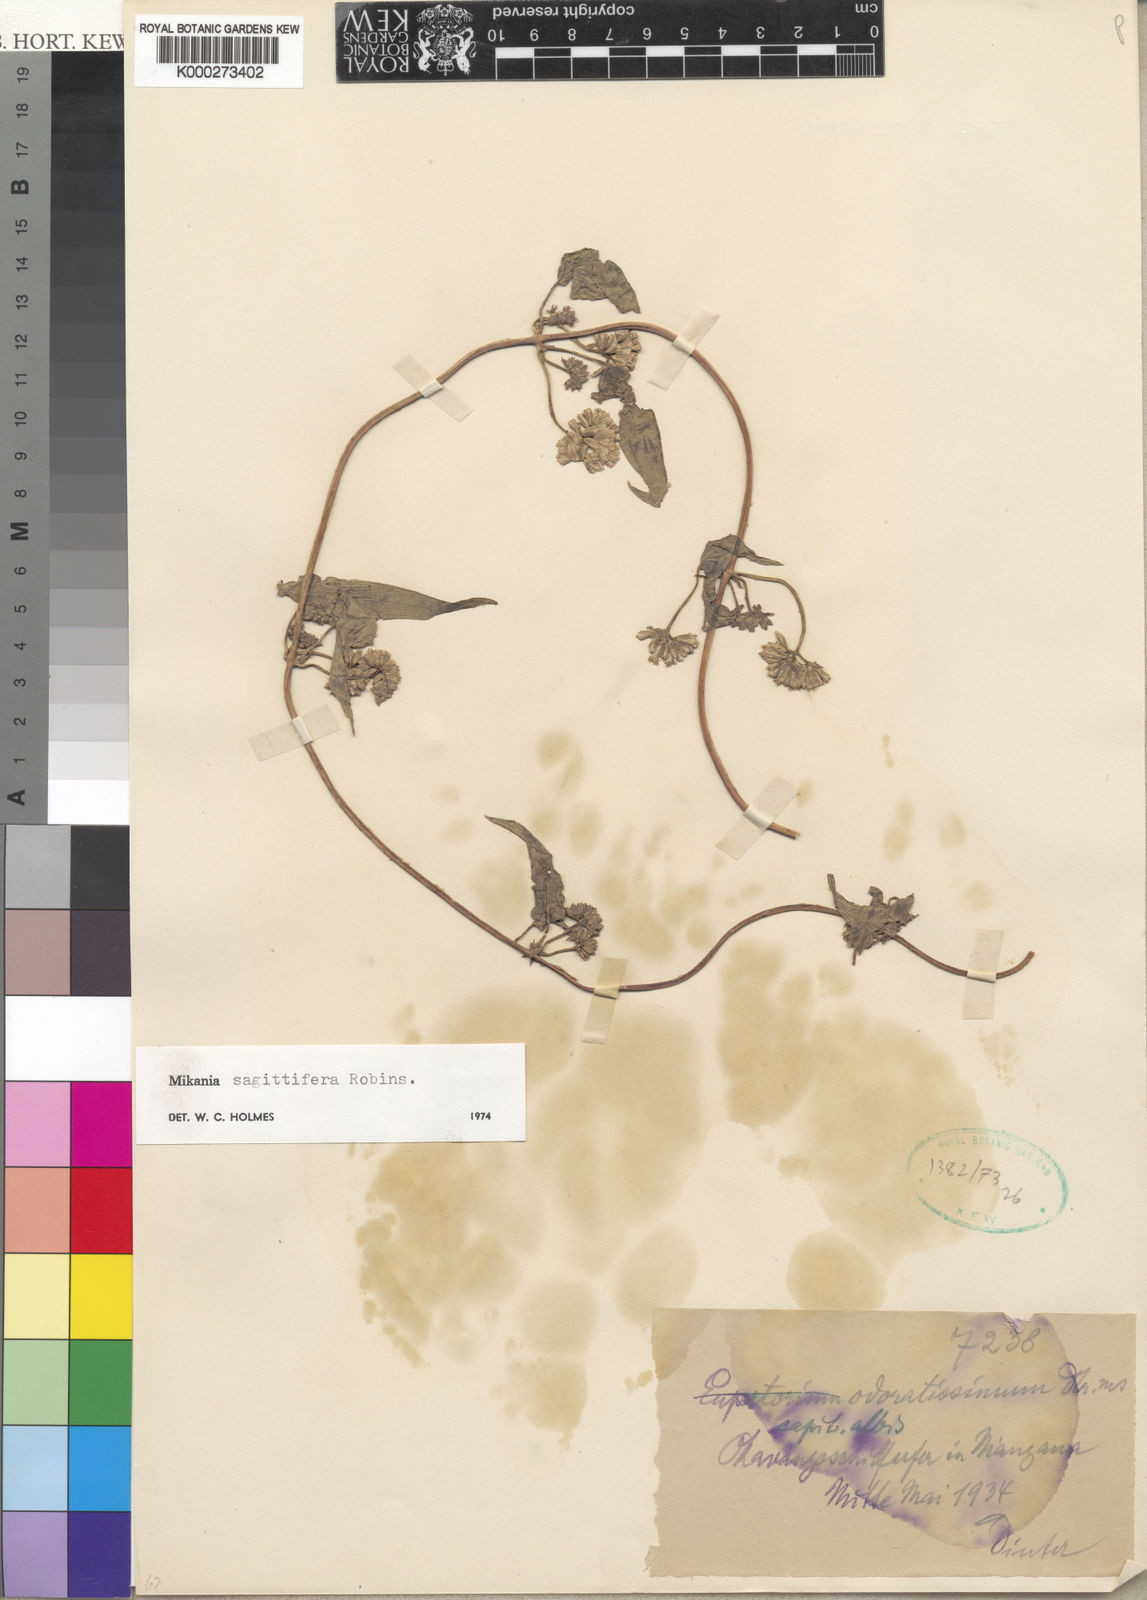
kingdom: Plantae
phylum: Tracheophyta
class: Magnoliopsida
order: Asterales
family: Asteraceae
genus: Mikania
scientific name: Mikania sagittifera
